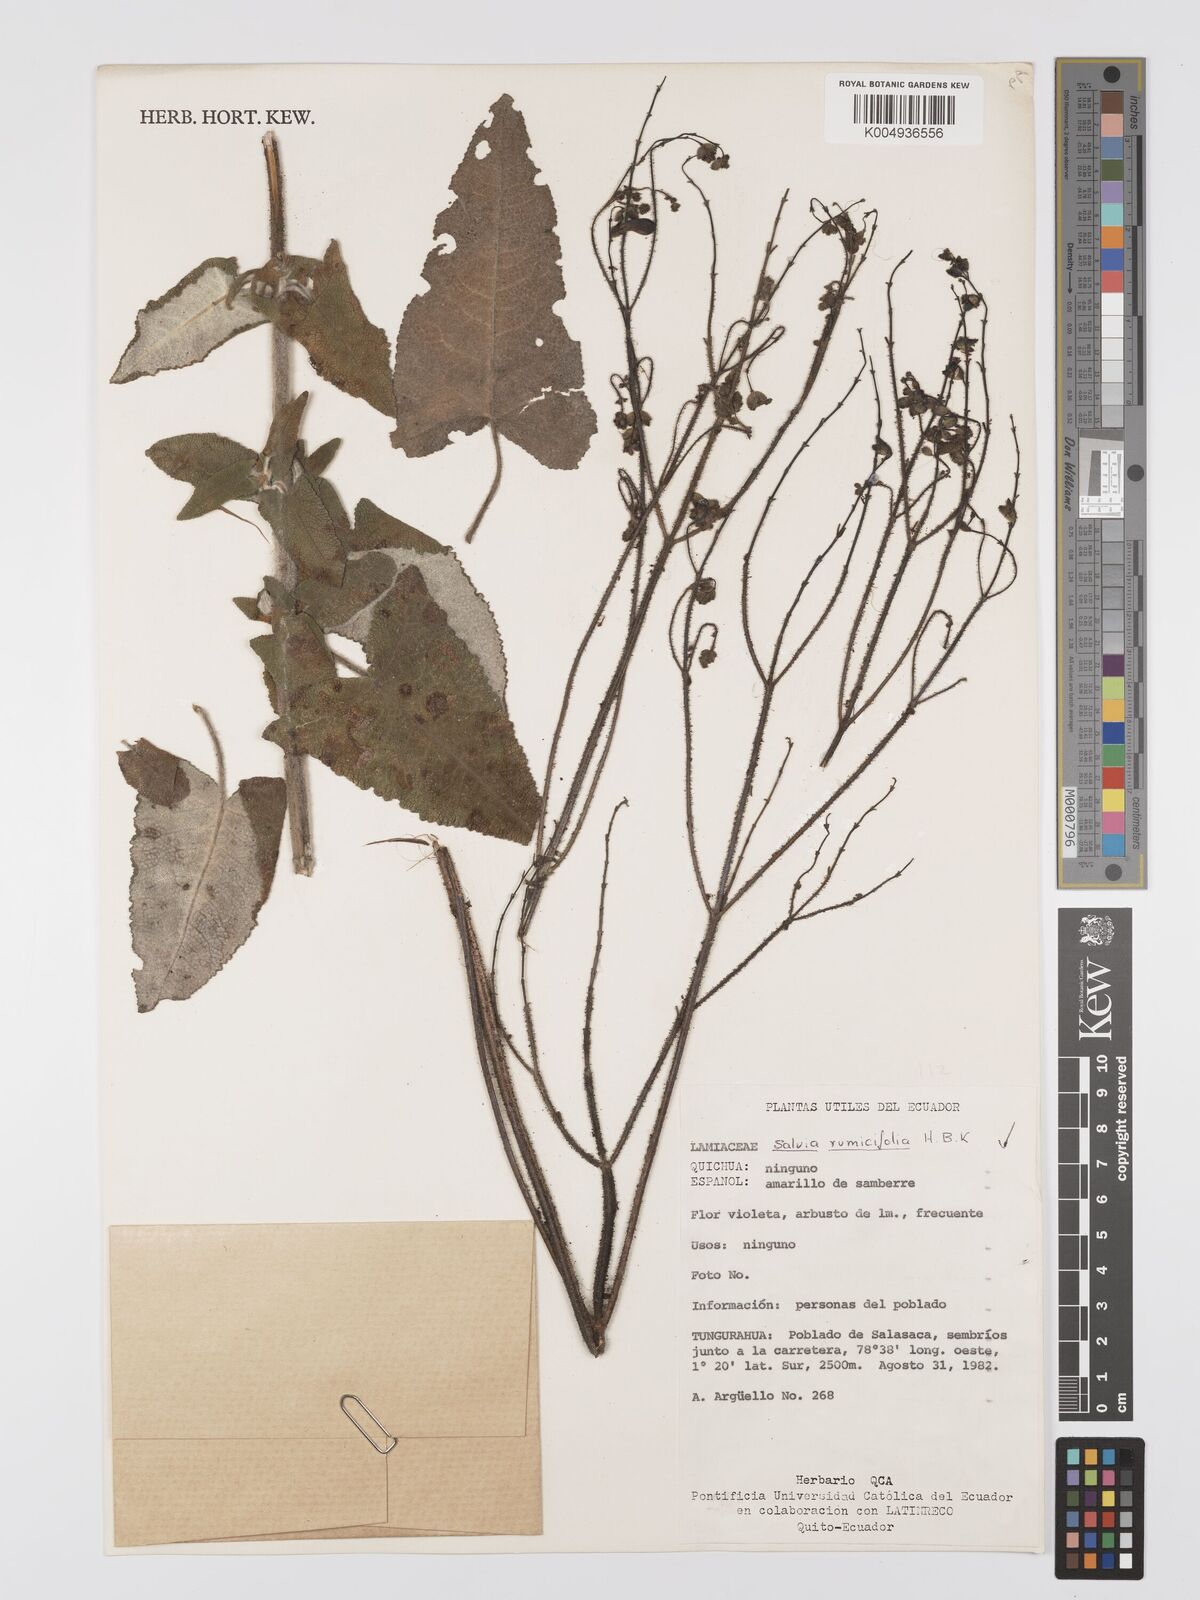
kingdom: Plantae
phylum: Tracheophyta
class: Magnoliopsida
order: Lamiales
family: Lamiaceae
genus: Salvia
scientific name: Salvia sagittata
